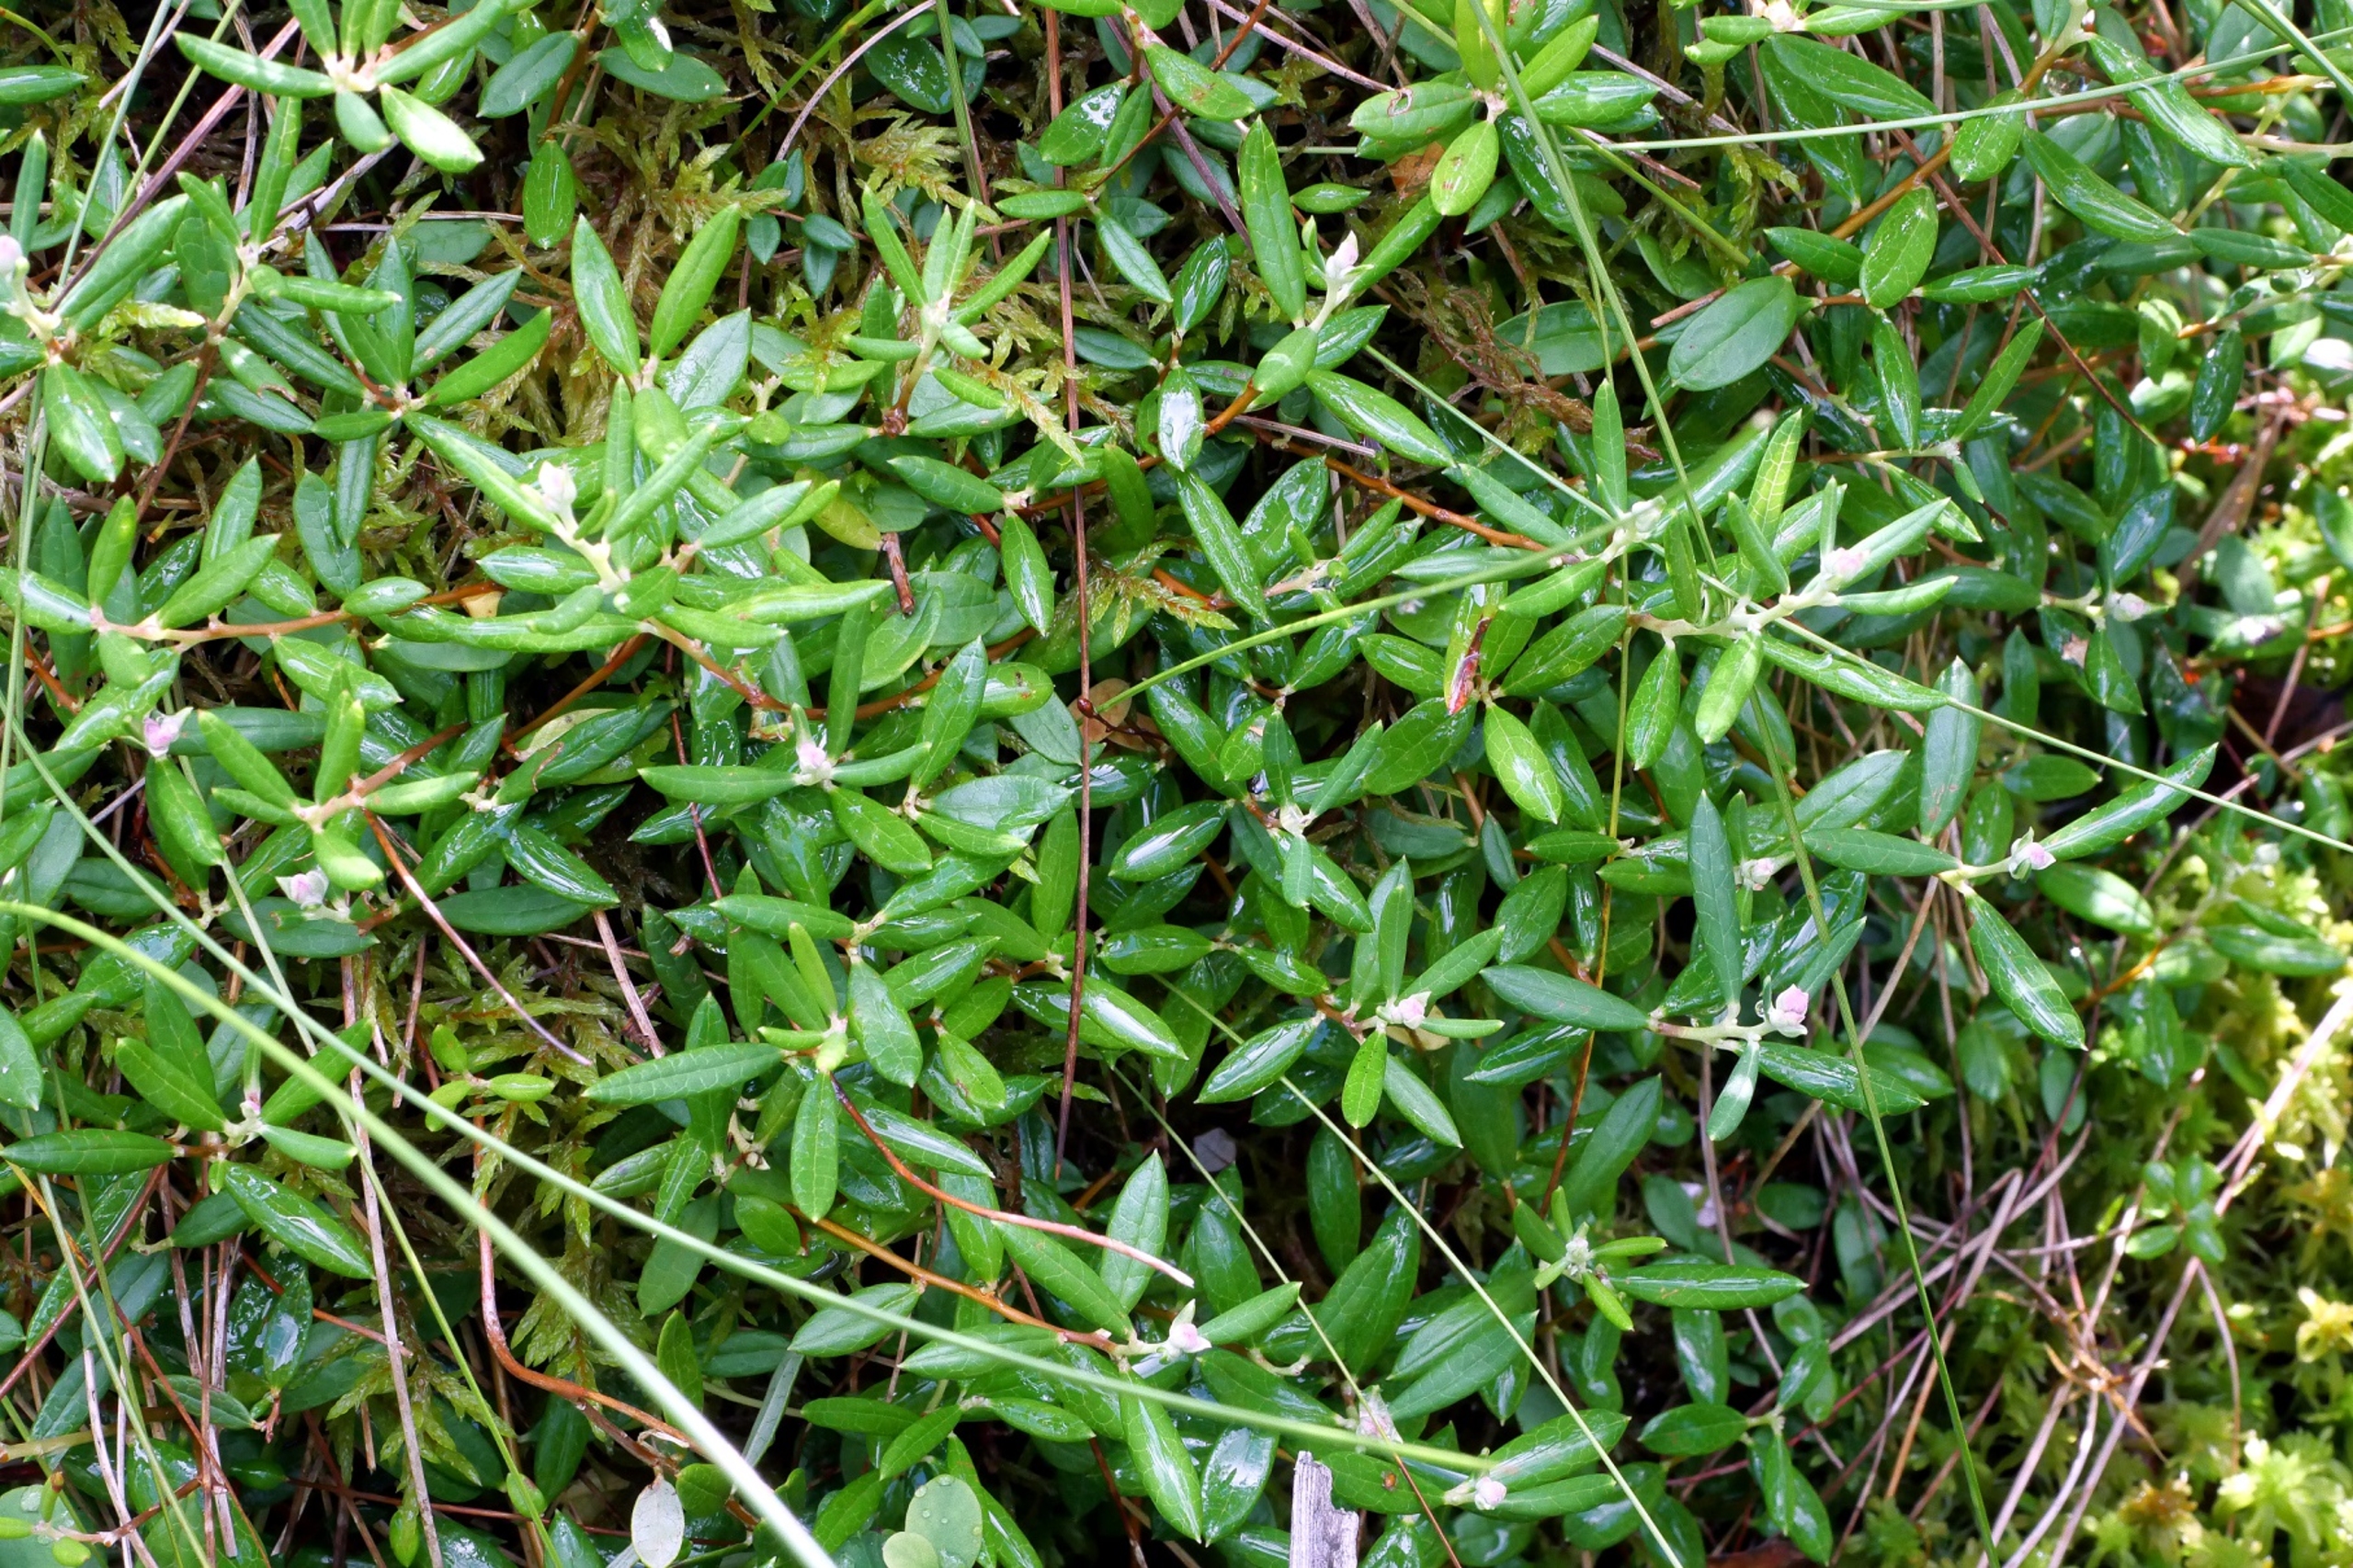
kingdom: Plantae
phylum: Tracheophyta
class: Magnoliopsida
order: Ericales
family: Ericaceae
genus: Andromeda
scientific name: Andromeda polifolia
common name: Rosmarinlyng
